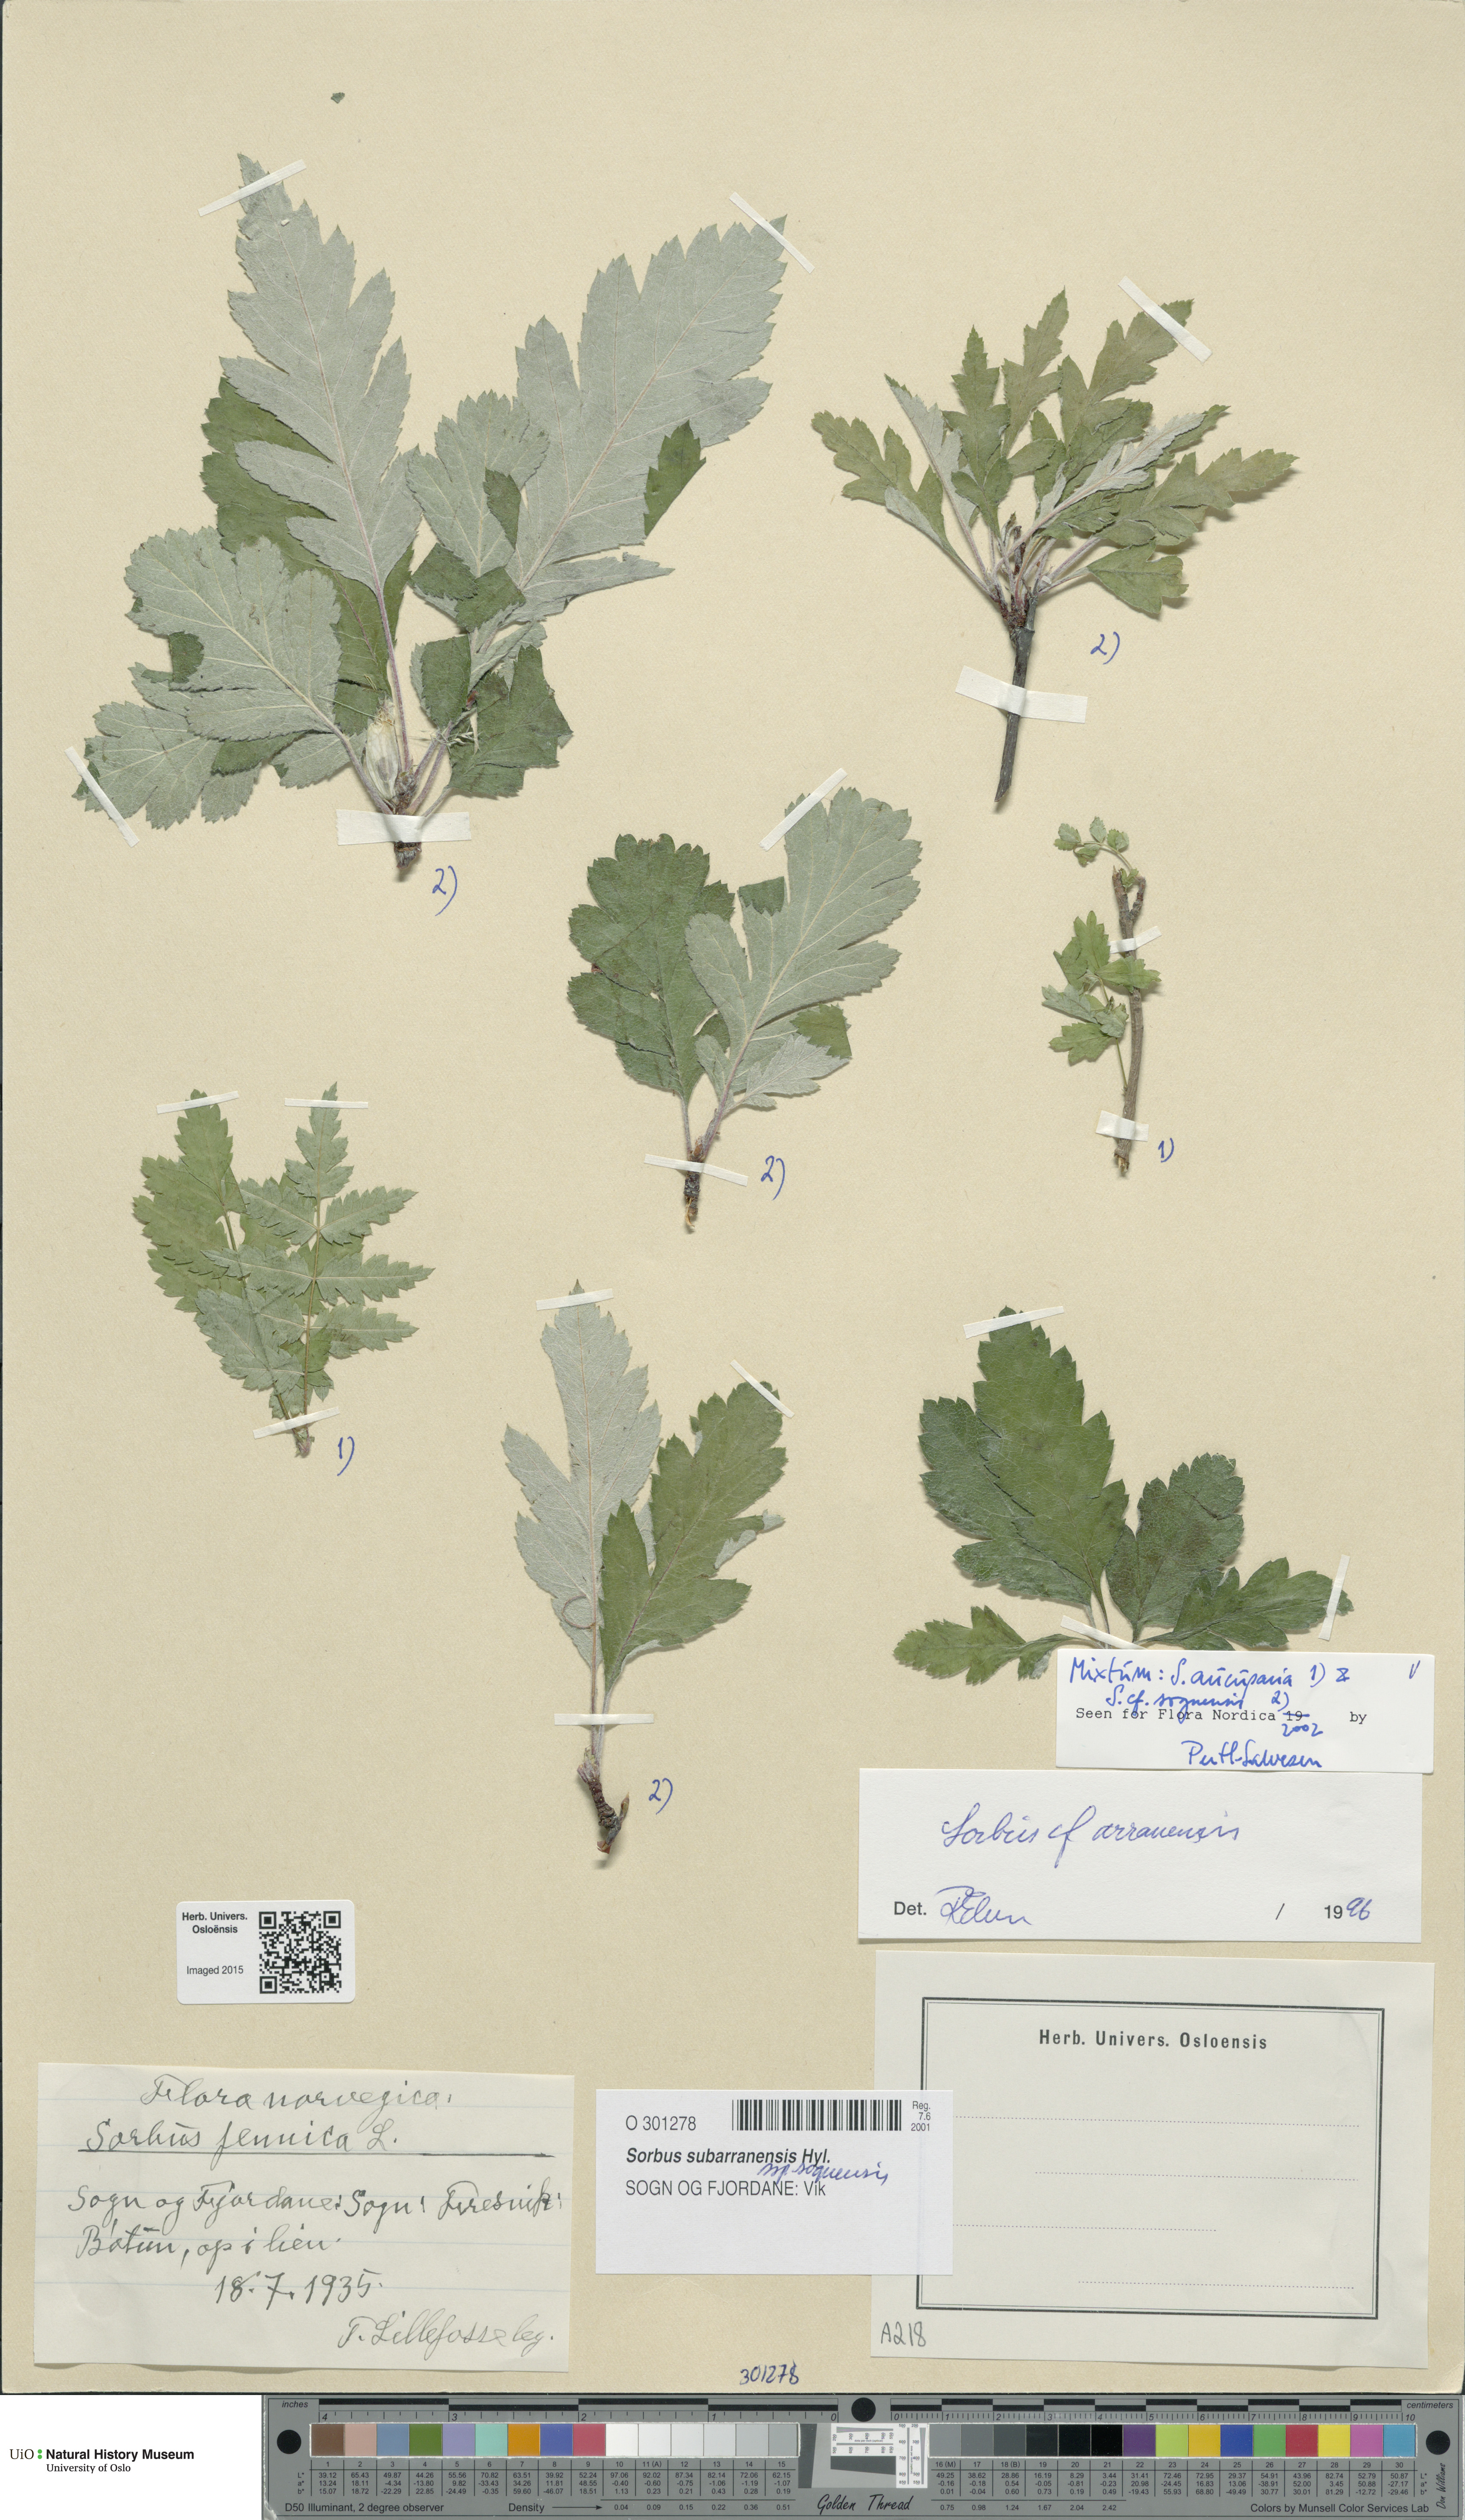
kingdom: Plantae
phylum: Tracheophyta
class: Magnoliopsida
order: Rosales
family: Rosaceae
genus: Hedlundia
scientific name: Hedlundia sognensis
